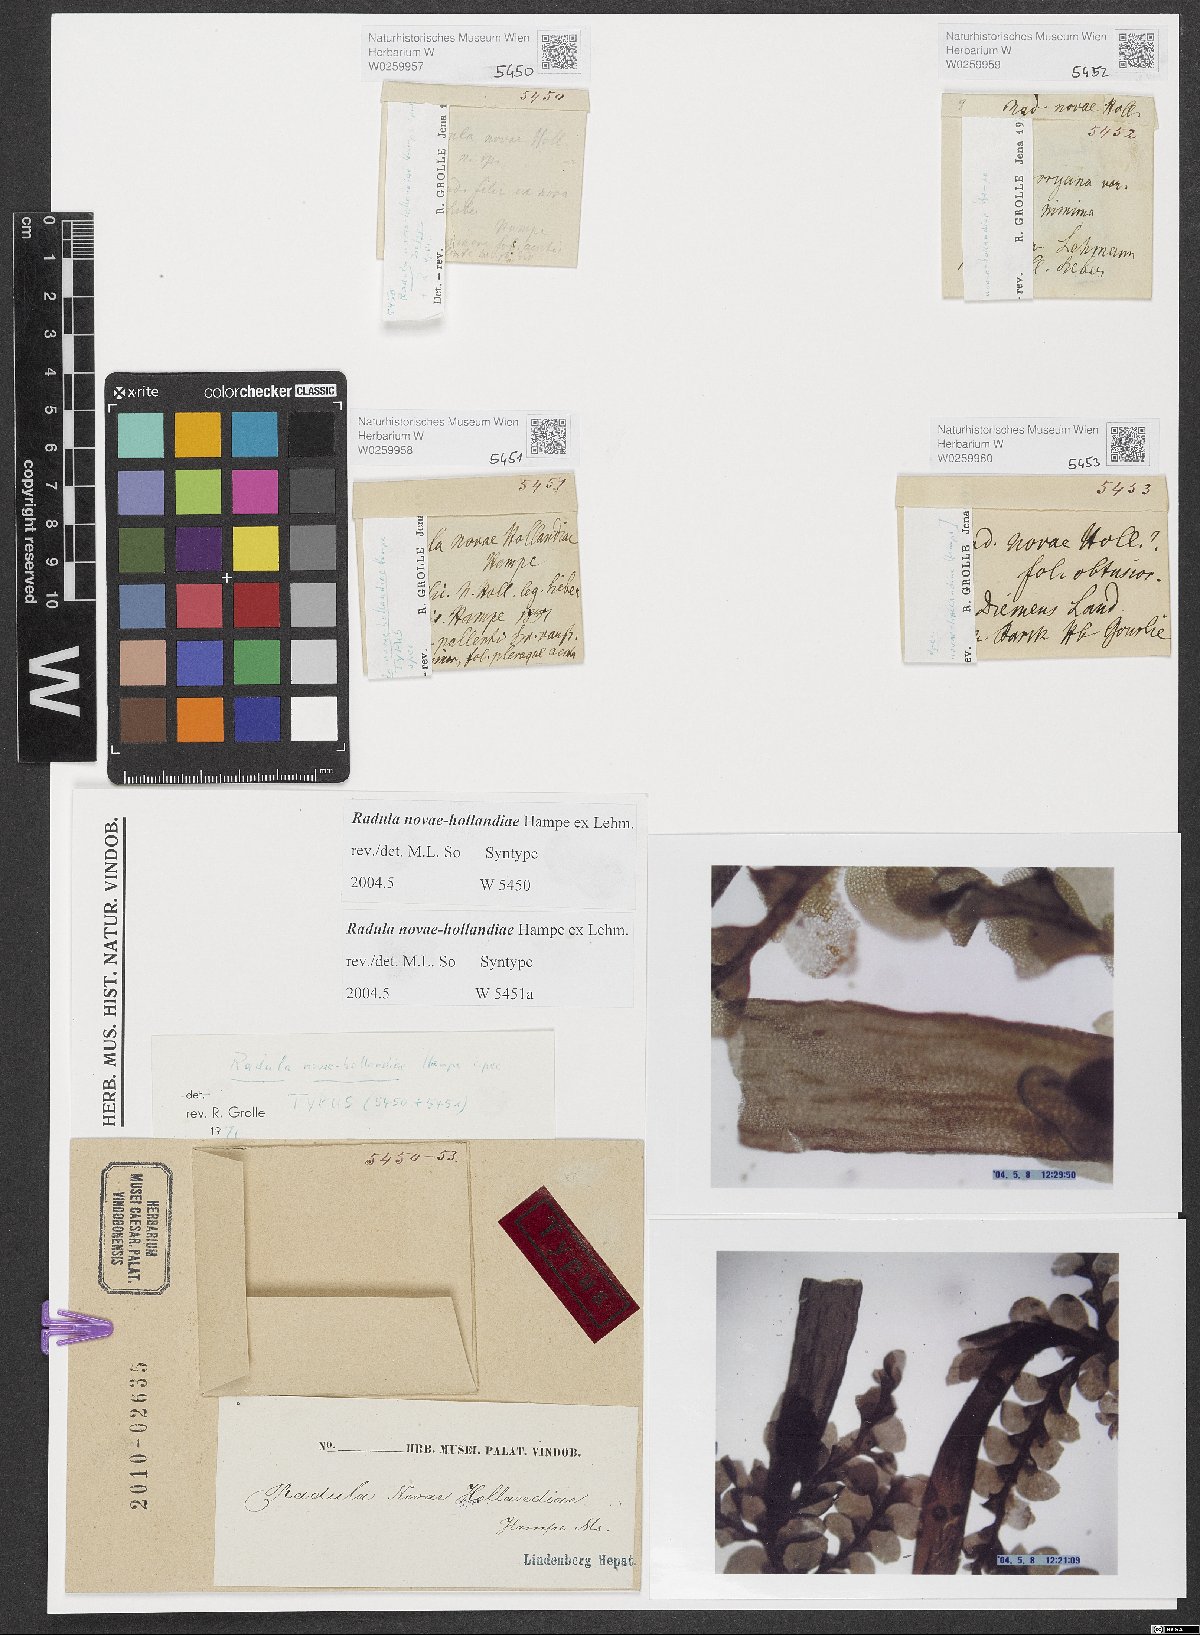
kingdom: Plantae
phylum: Marchantiophyta
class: Jungermanniopsida
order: Porellales
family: Radulaceae
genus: Radula
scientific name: Radula novae-hollandiae
